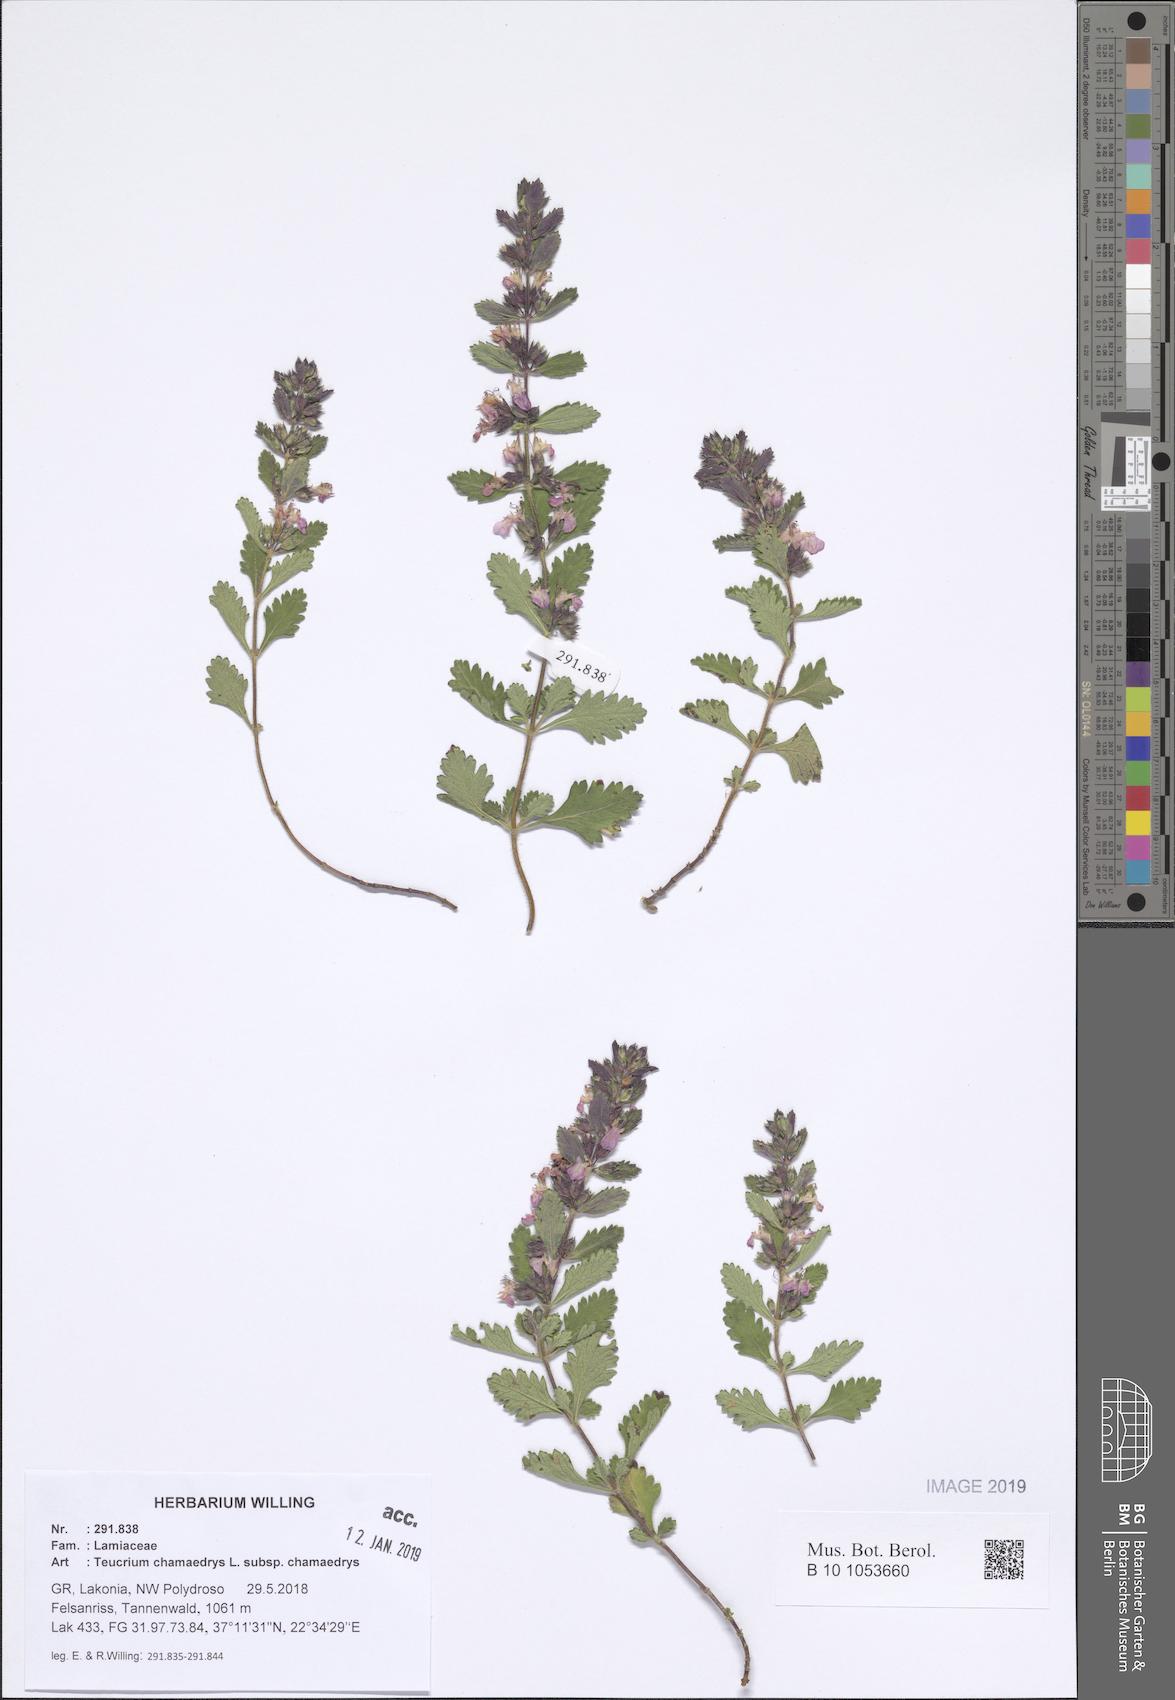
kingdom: Plantae
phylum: Tracheophyta
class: Magnoliopsida
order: Lamiales
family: Lamiaceae
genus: Teucrium
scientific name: Teucrium chamaedrys
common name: Wall germander
